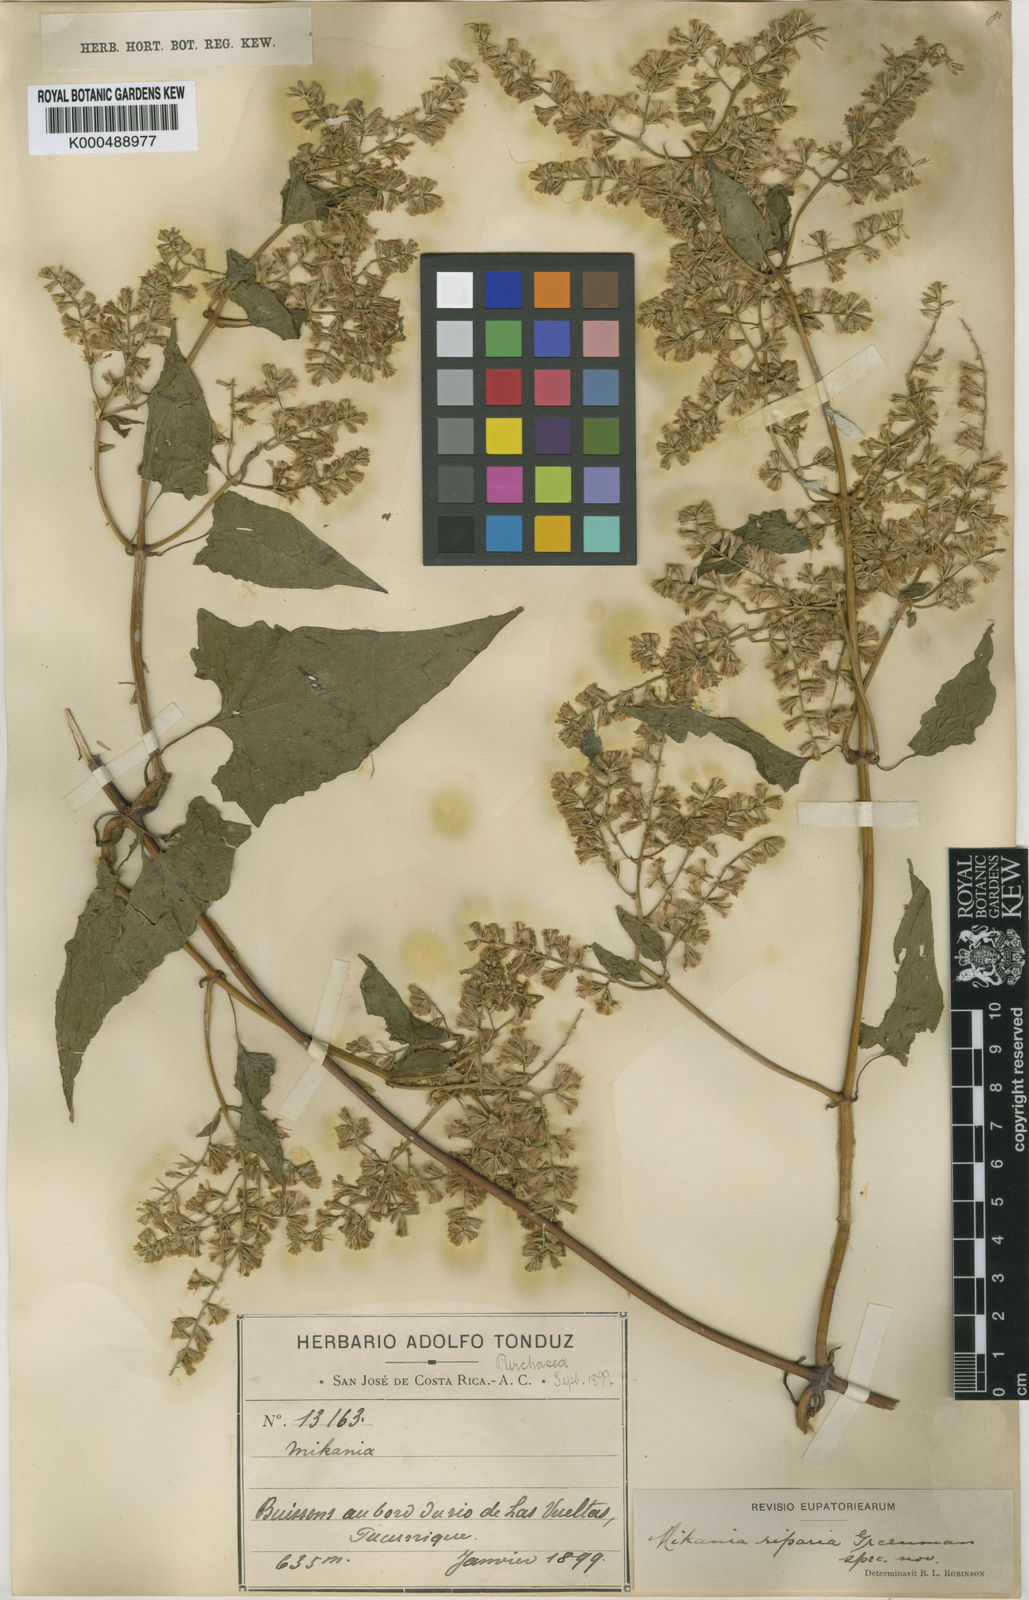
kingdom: Plantae
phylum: Tracheophyta
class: Magnoliopsida
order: Asterales
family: Asteraceae
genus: Mikania
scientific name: Mikania riparia
